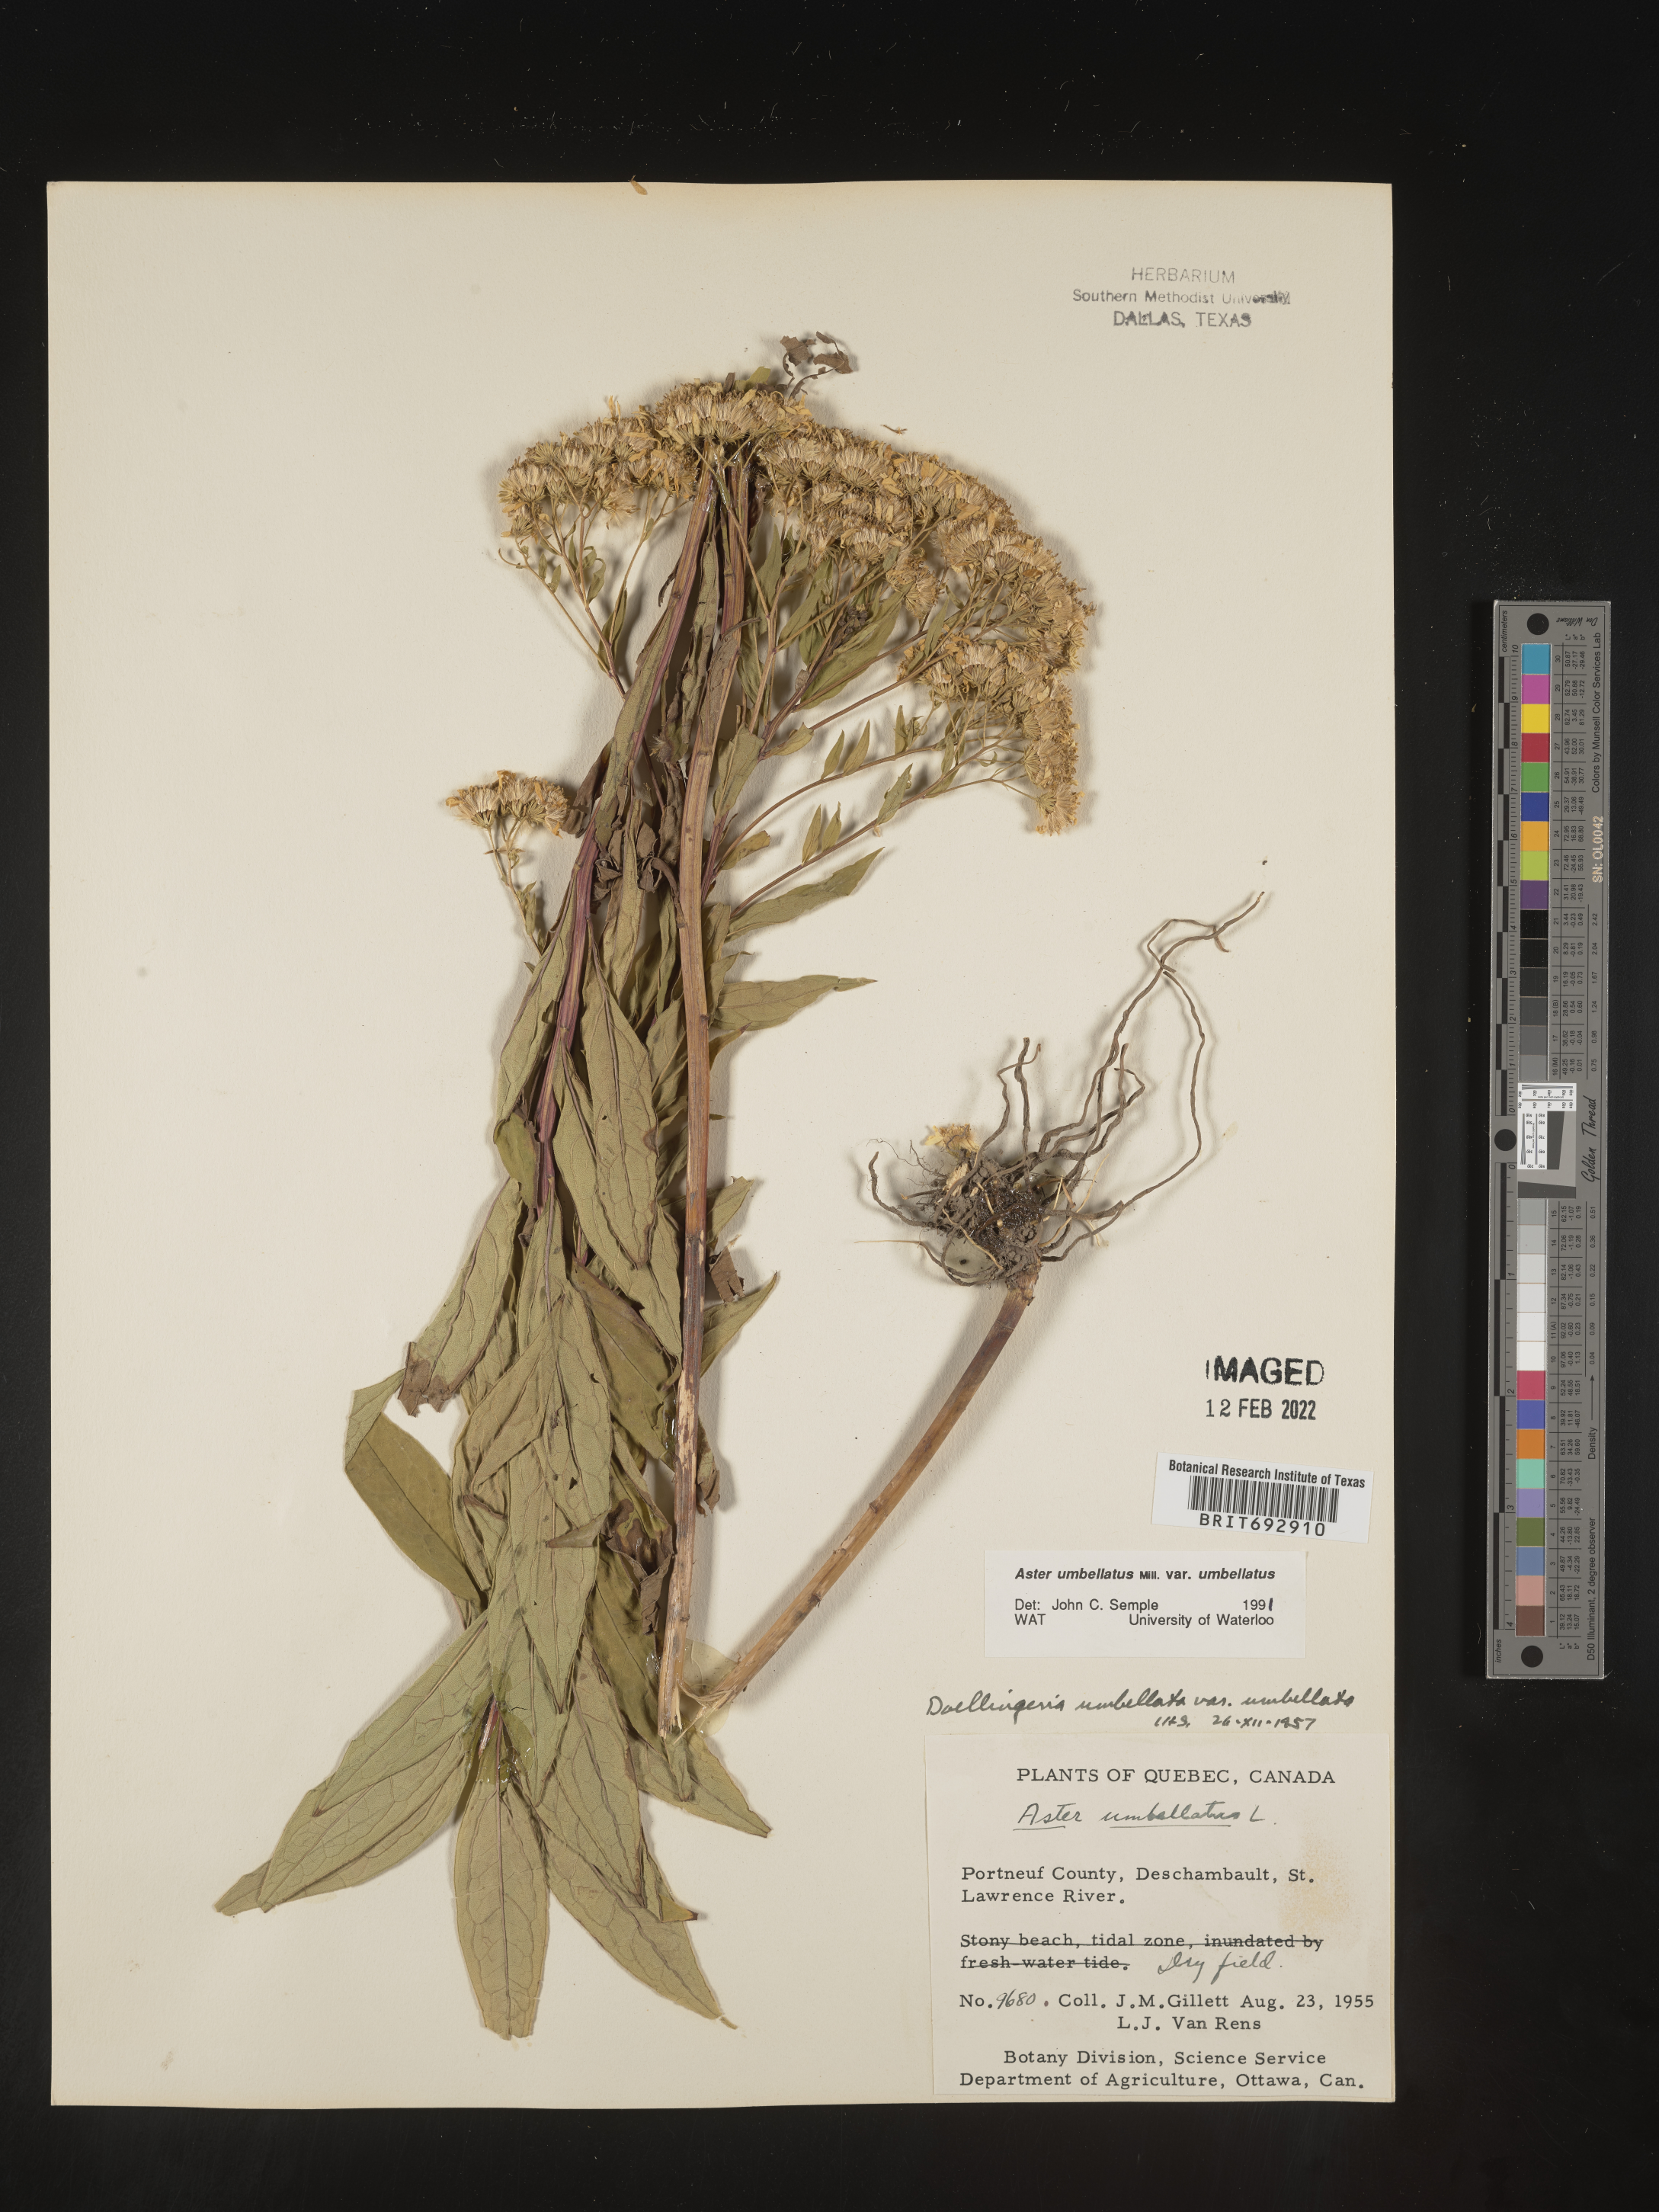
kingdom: Plantae
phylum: Tracheophyta
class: Magnoliopsida
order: Asterales
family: Asteraceae
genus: Doellingeria
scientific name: Doellingeria umbellata
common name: Flat-top white aster
